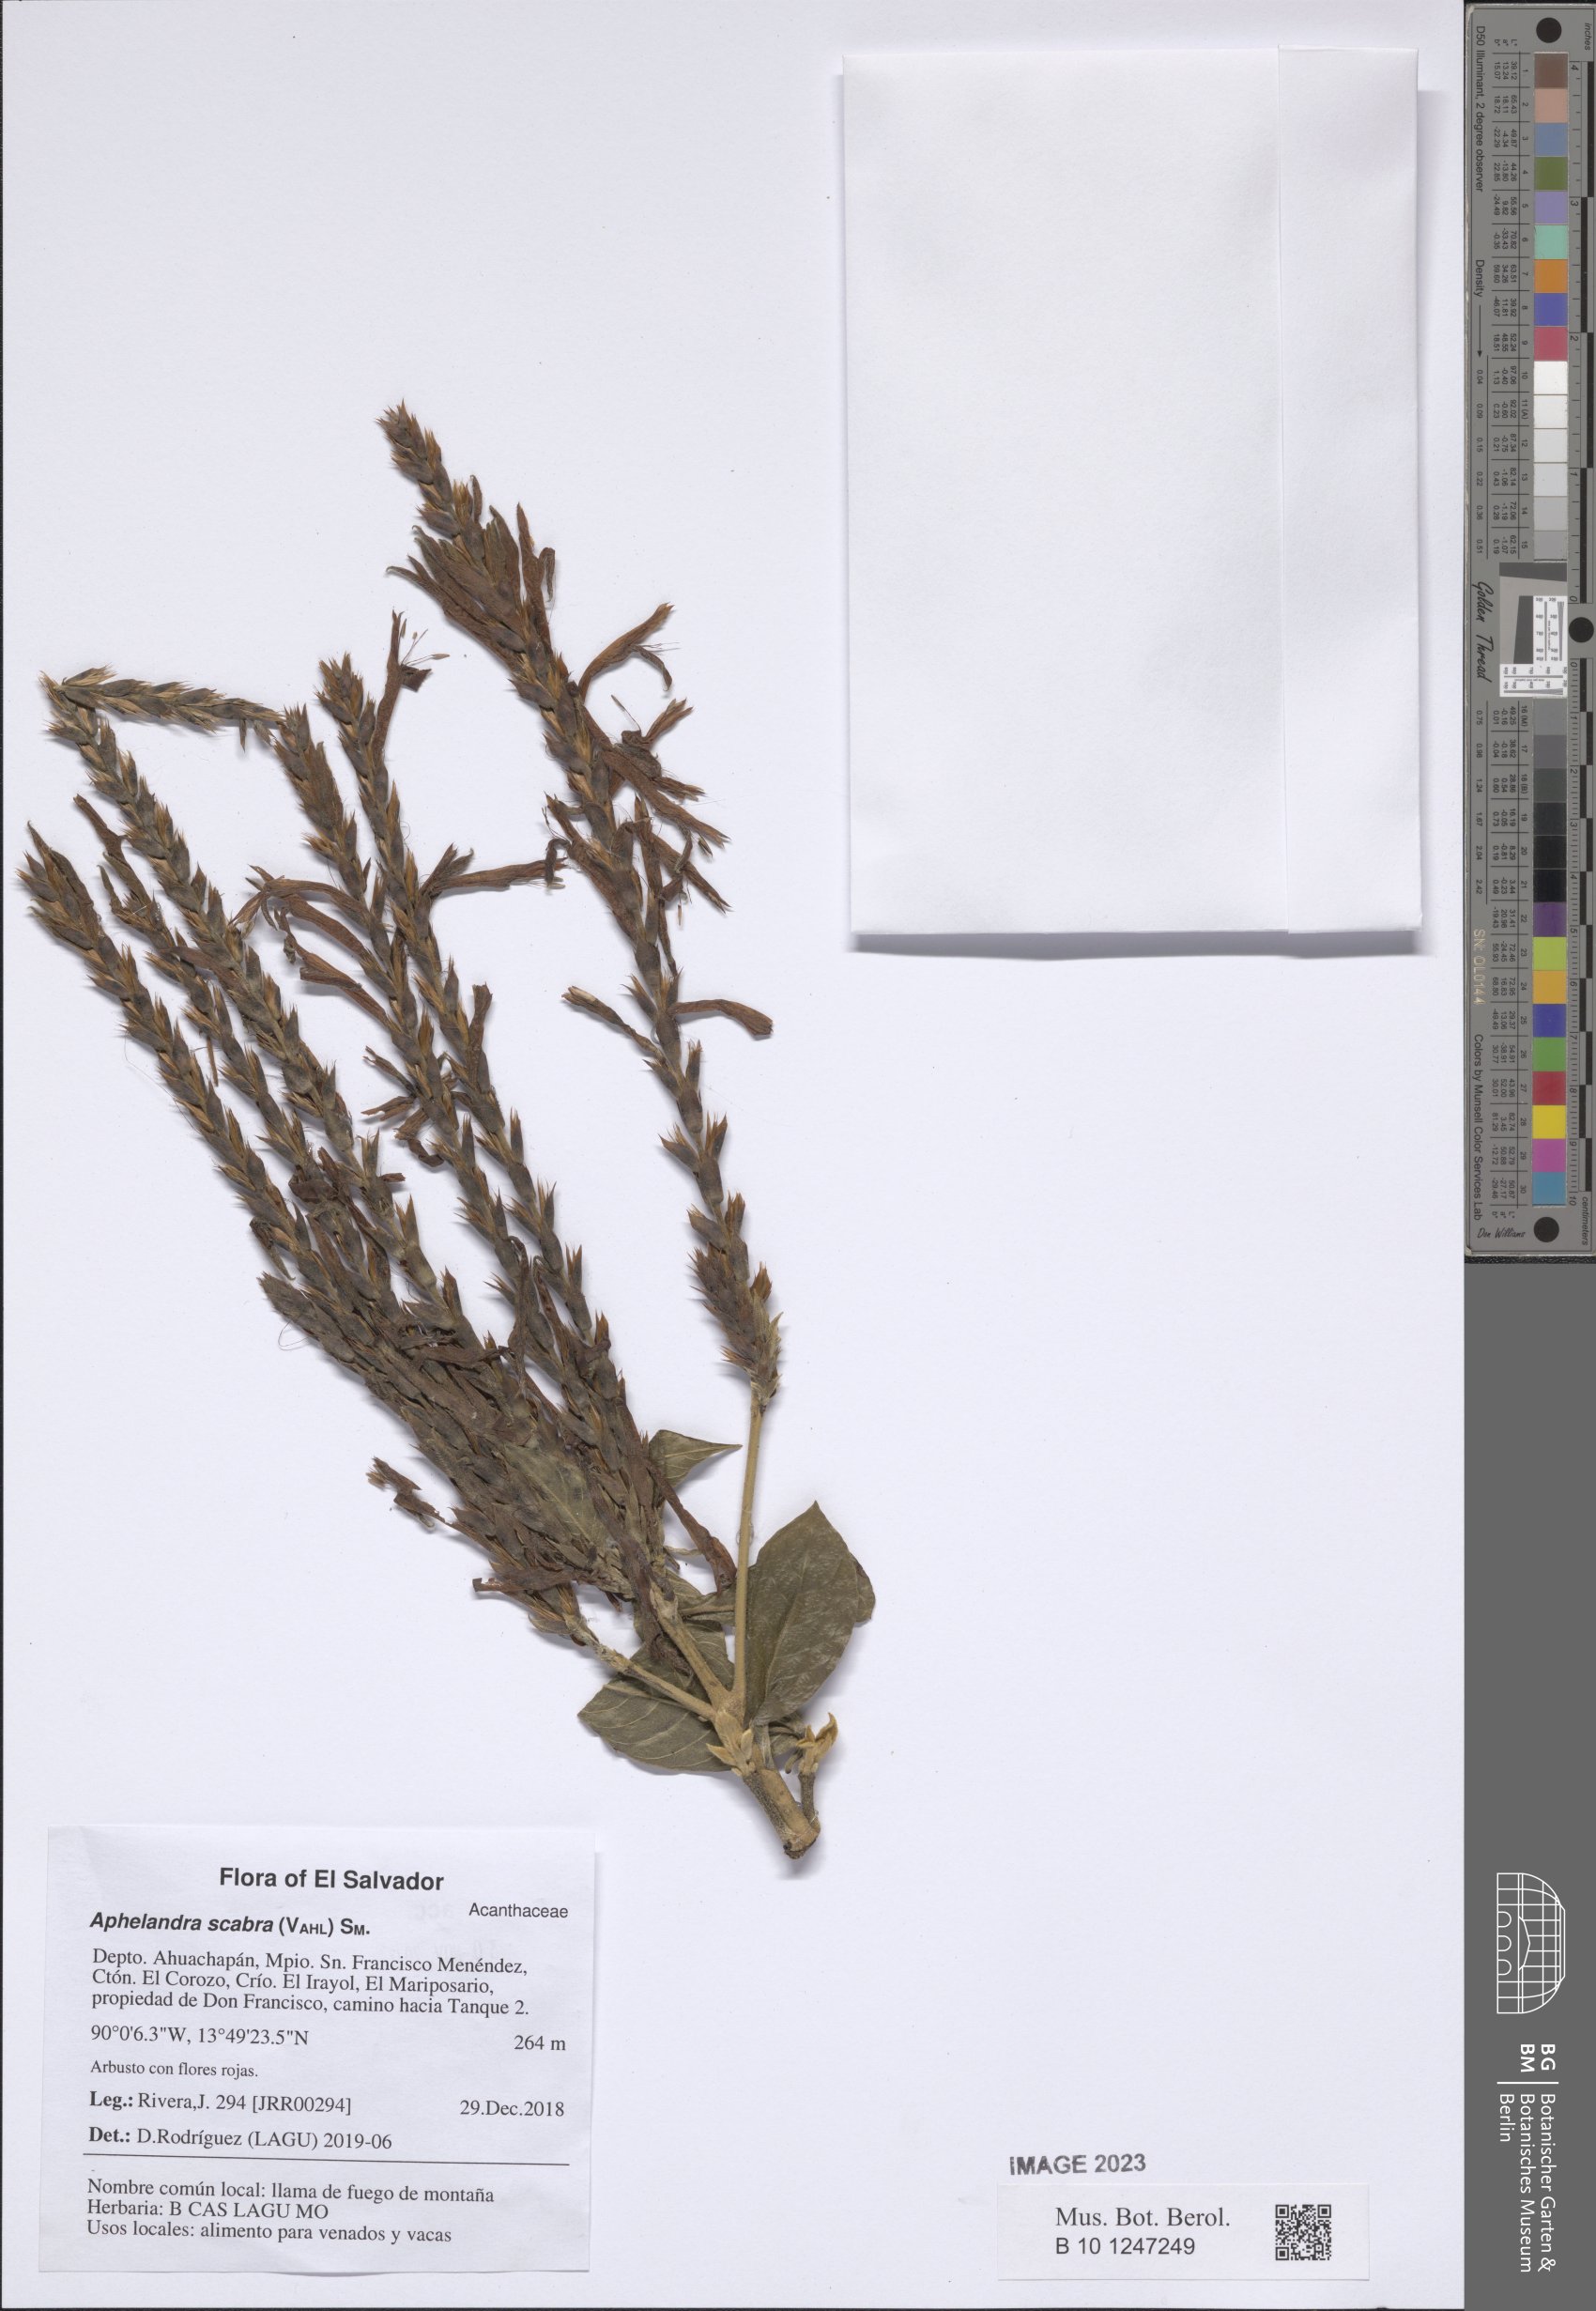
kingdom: Plantae
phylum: Tracheophyta
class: Magnoliopsida
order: Lamiales
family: Acanthaceae
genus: Aphelandra
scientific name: Aphelandra scabra
